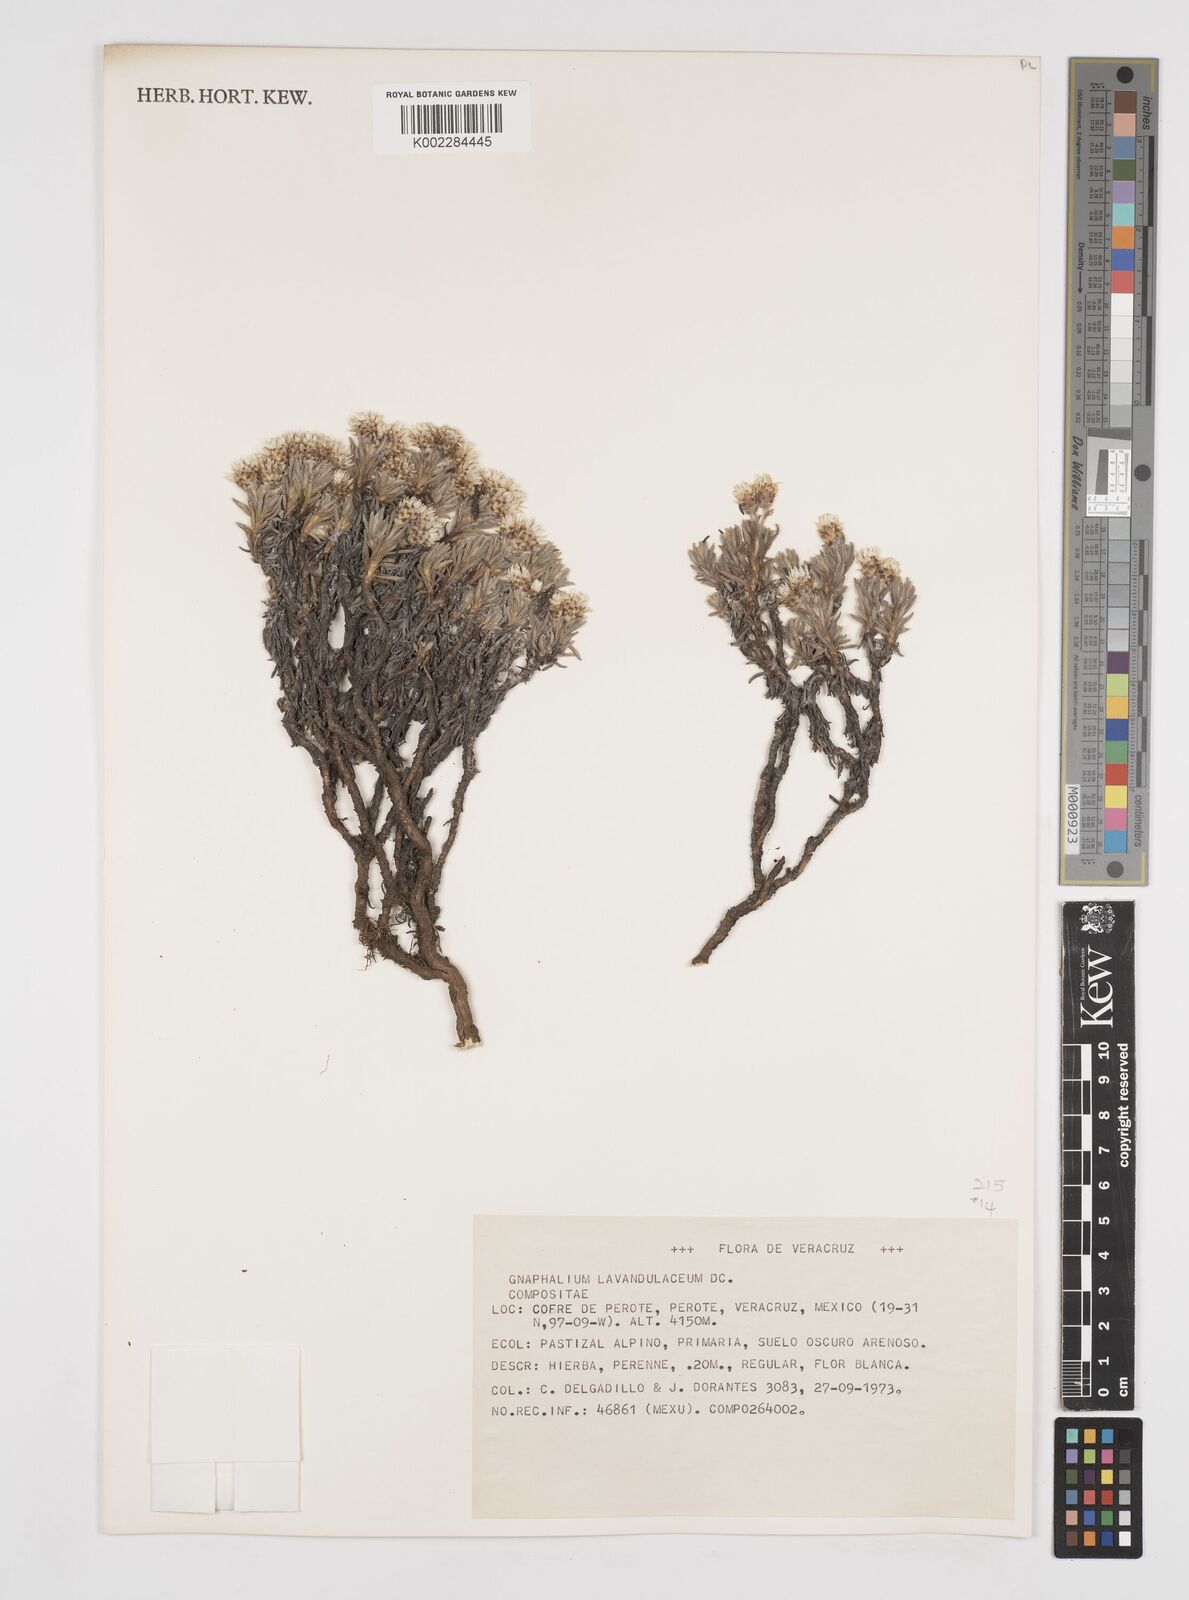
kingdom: Plantae
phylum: Tracheophyta
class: Magnoliopsida
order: Asterales
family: Asteraceae
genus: Gnaphaliothamnus
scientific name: Gnaphaliothamnus lavandulifolius
